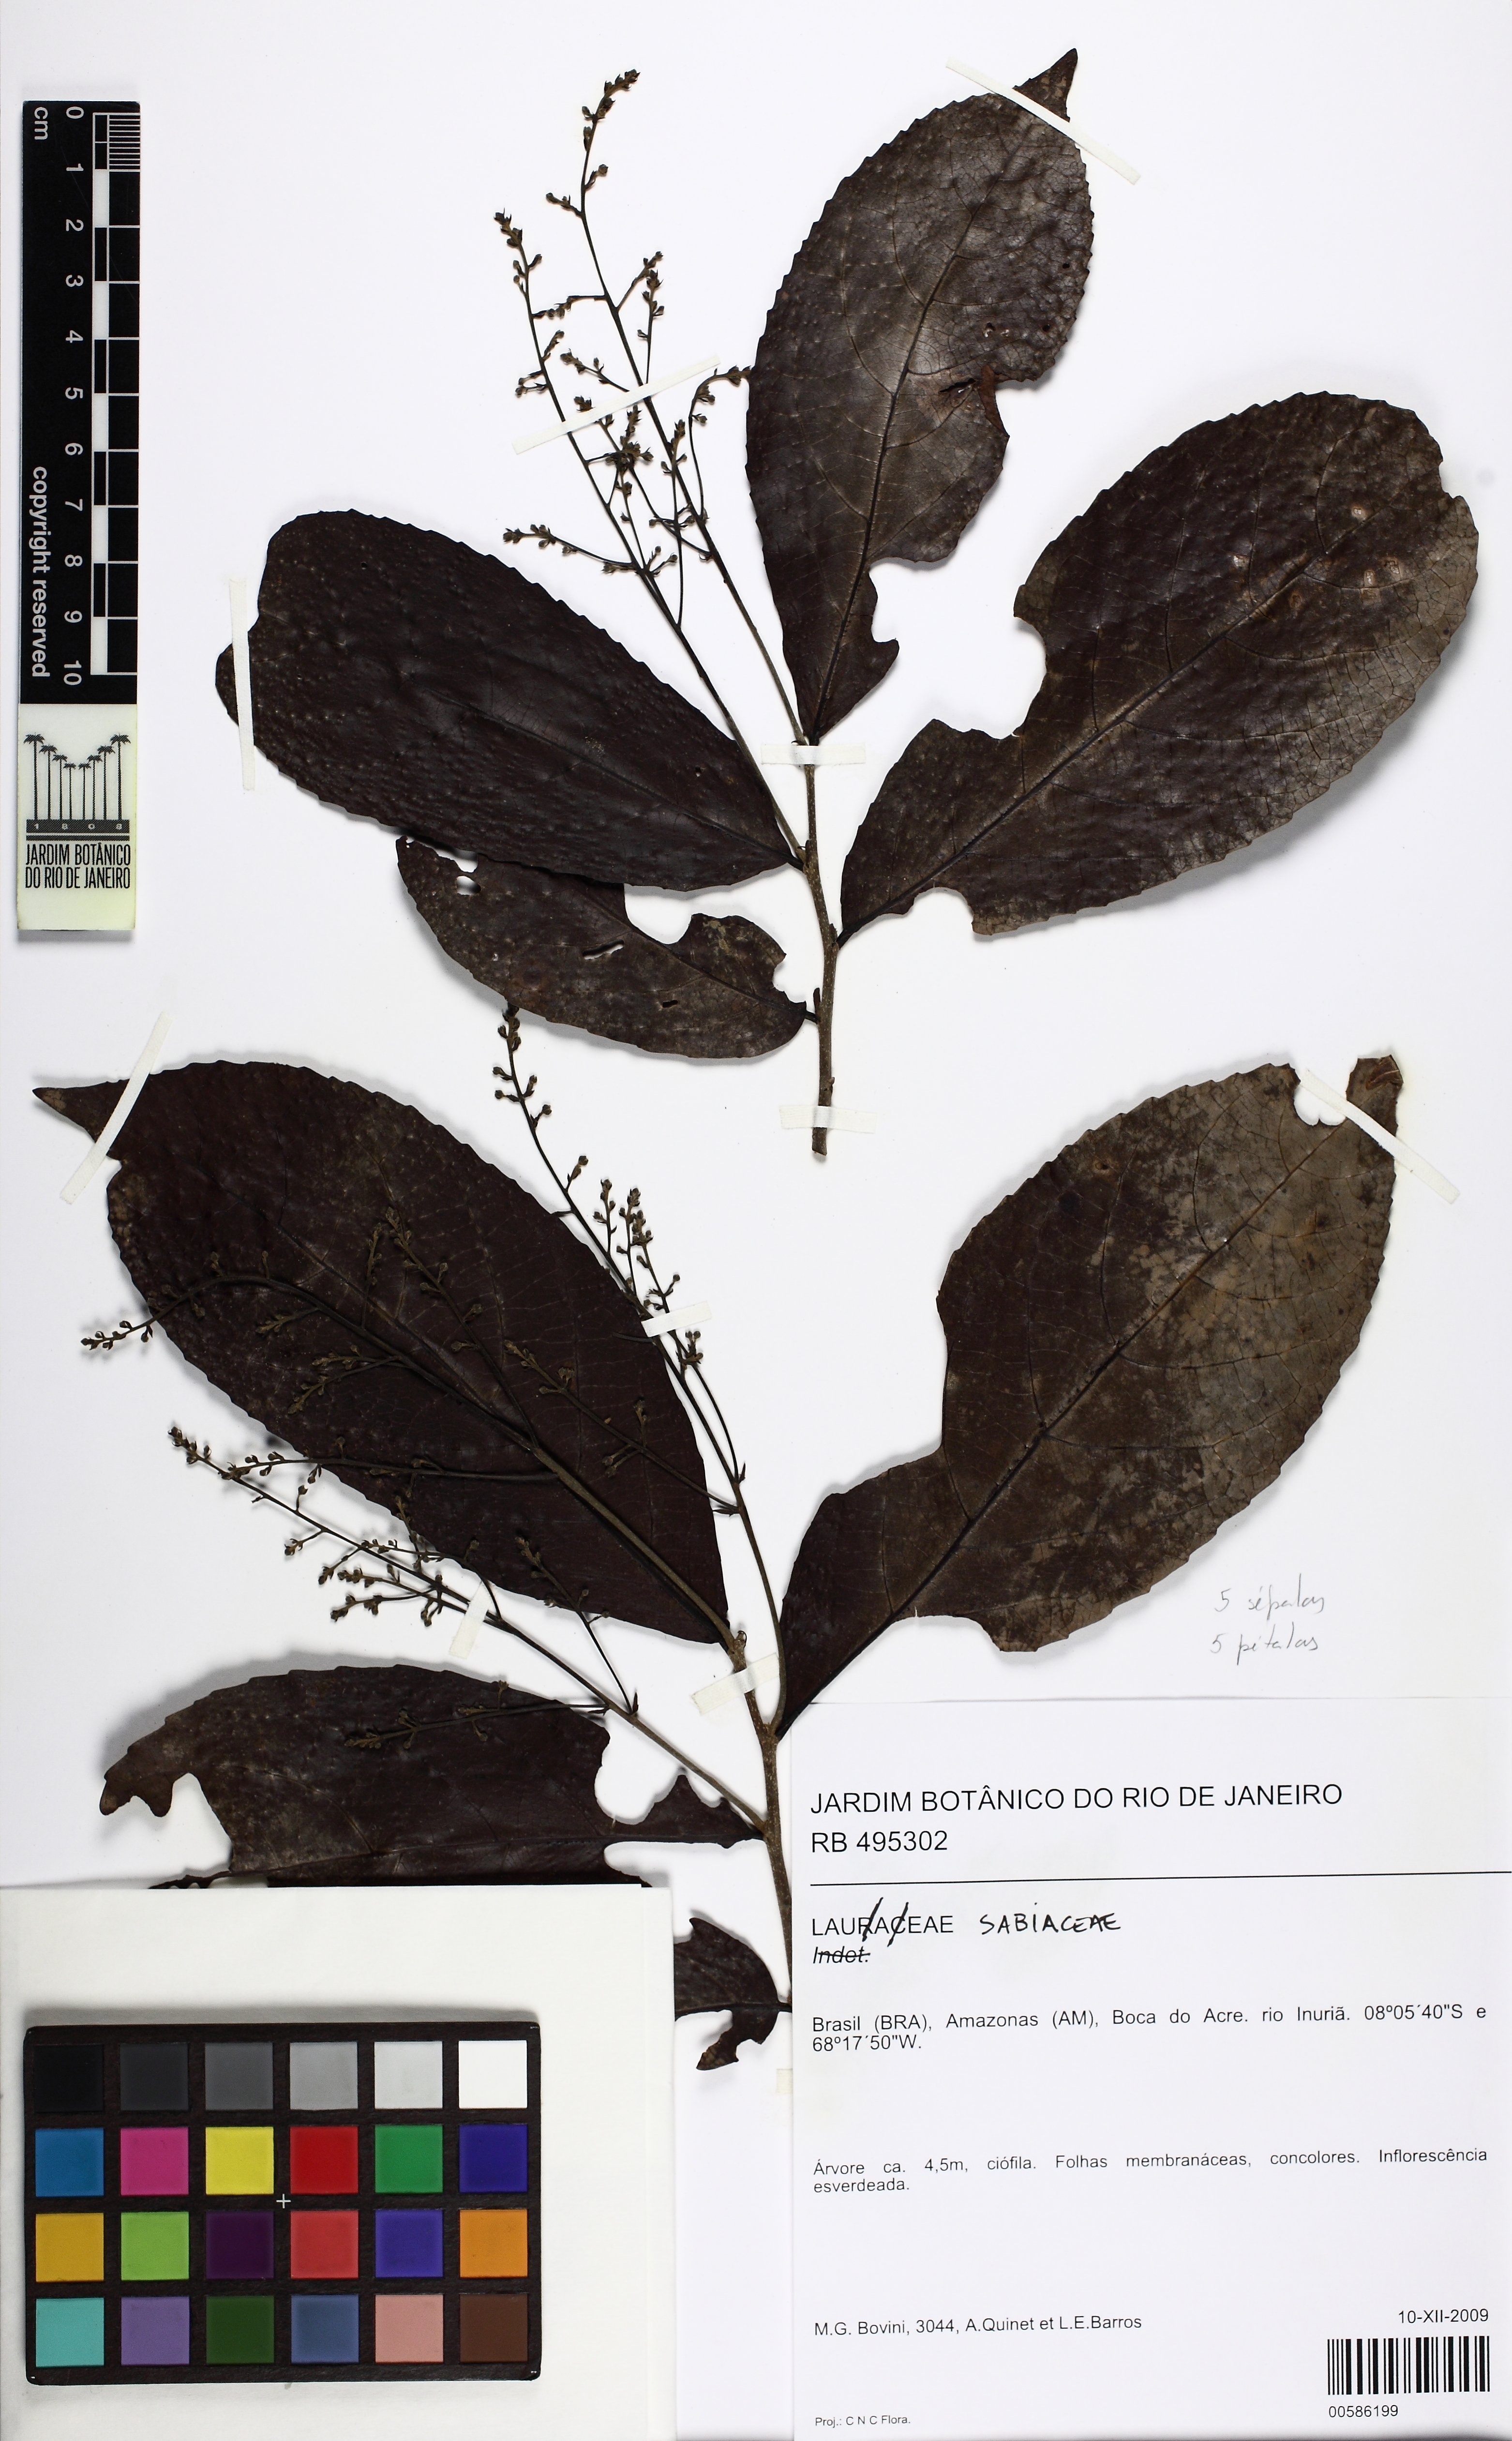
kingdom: Plantae
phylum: Tracheophyta
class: Magnoliopsida
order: Proteales
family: Sabiaceae
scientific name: Sabiaceae
